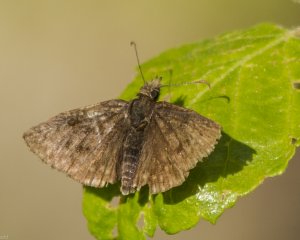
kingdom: Animalia
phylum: Arthropoda
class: Insecta
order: Lepidoptera
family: Hesperiidae
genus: Erynnis
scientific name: Erynnis icelus
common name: Dreamy Duskywing
